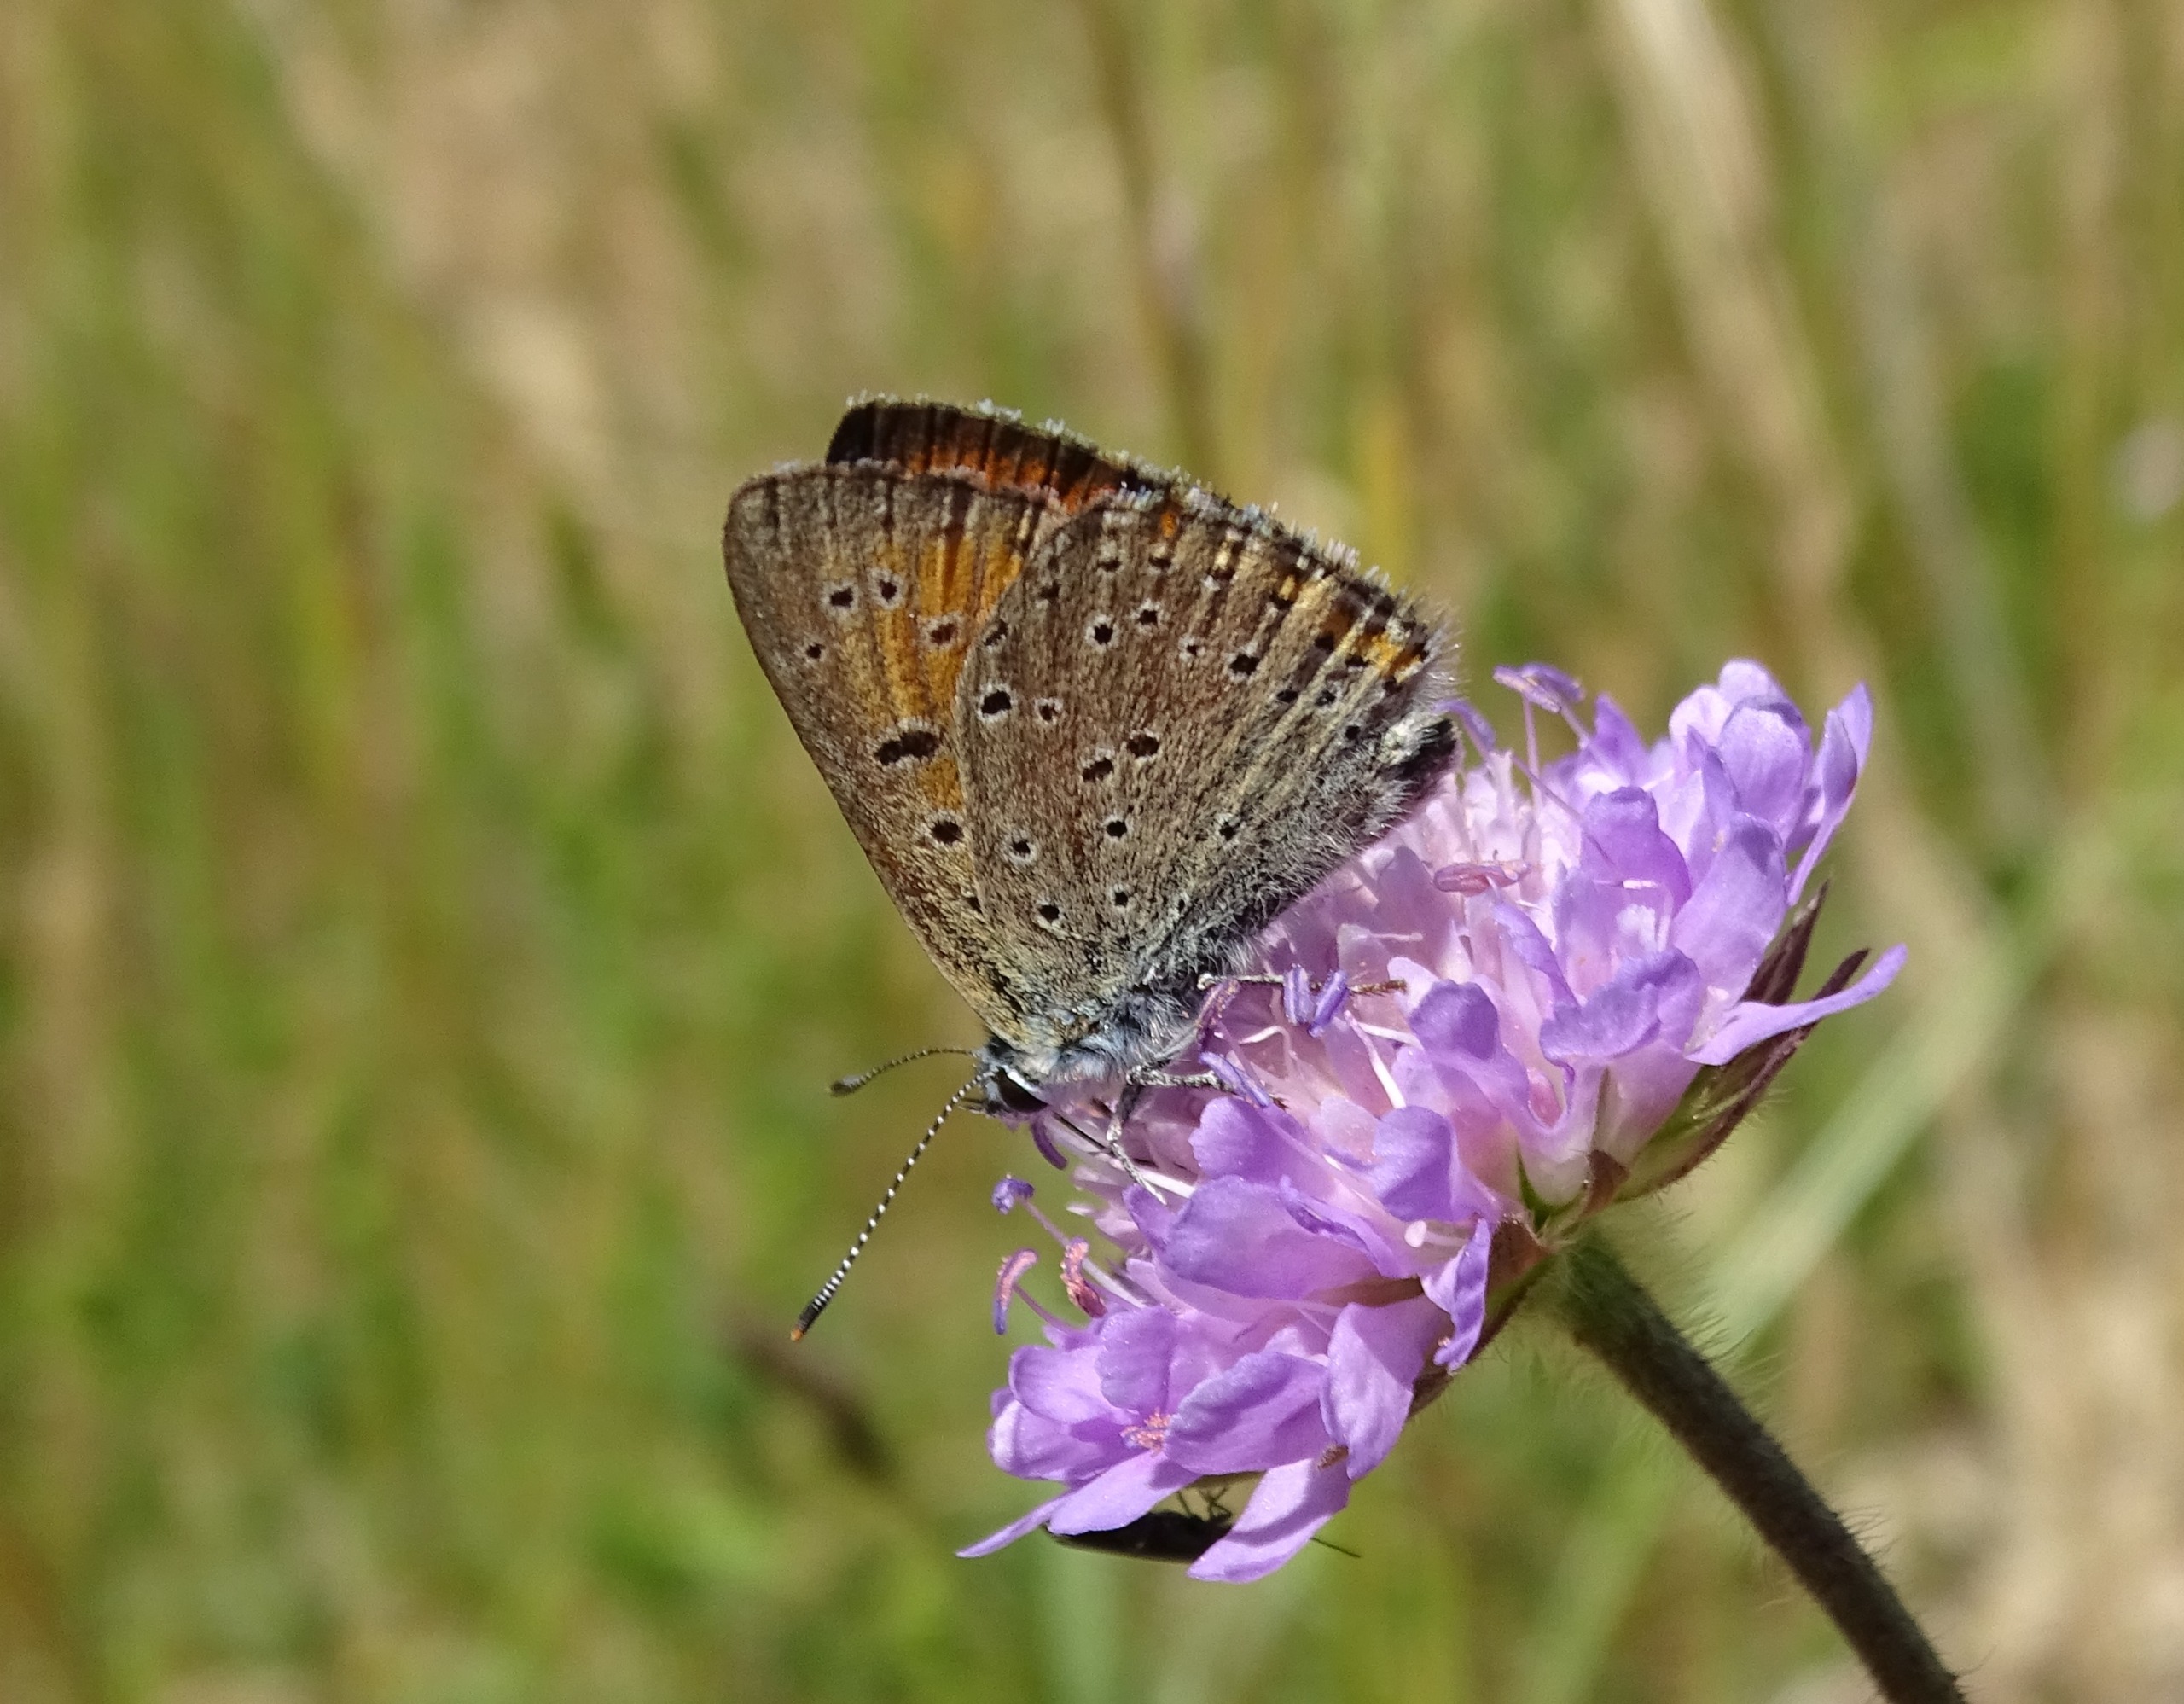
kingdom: Animalia
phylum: Arthropoda
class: Insecta
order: Lepidoptera
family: Lycaenidae
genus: Palaeochrysophanus
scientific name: Palaeochrysophanus hippothoe
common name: Violetrandet ildfugl
